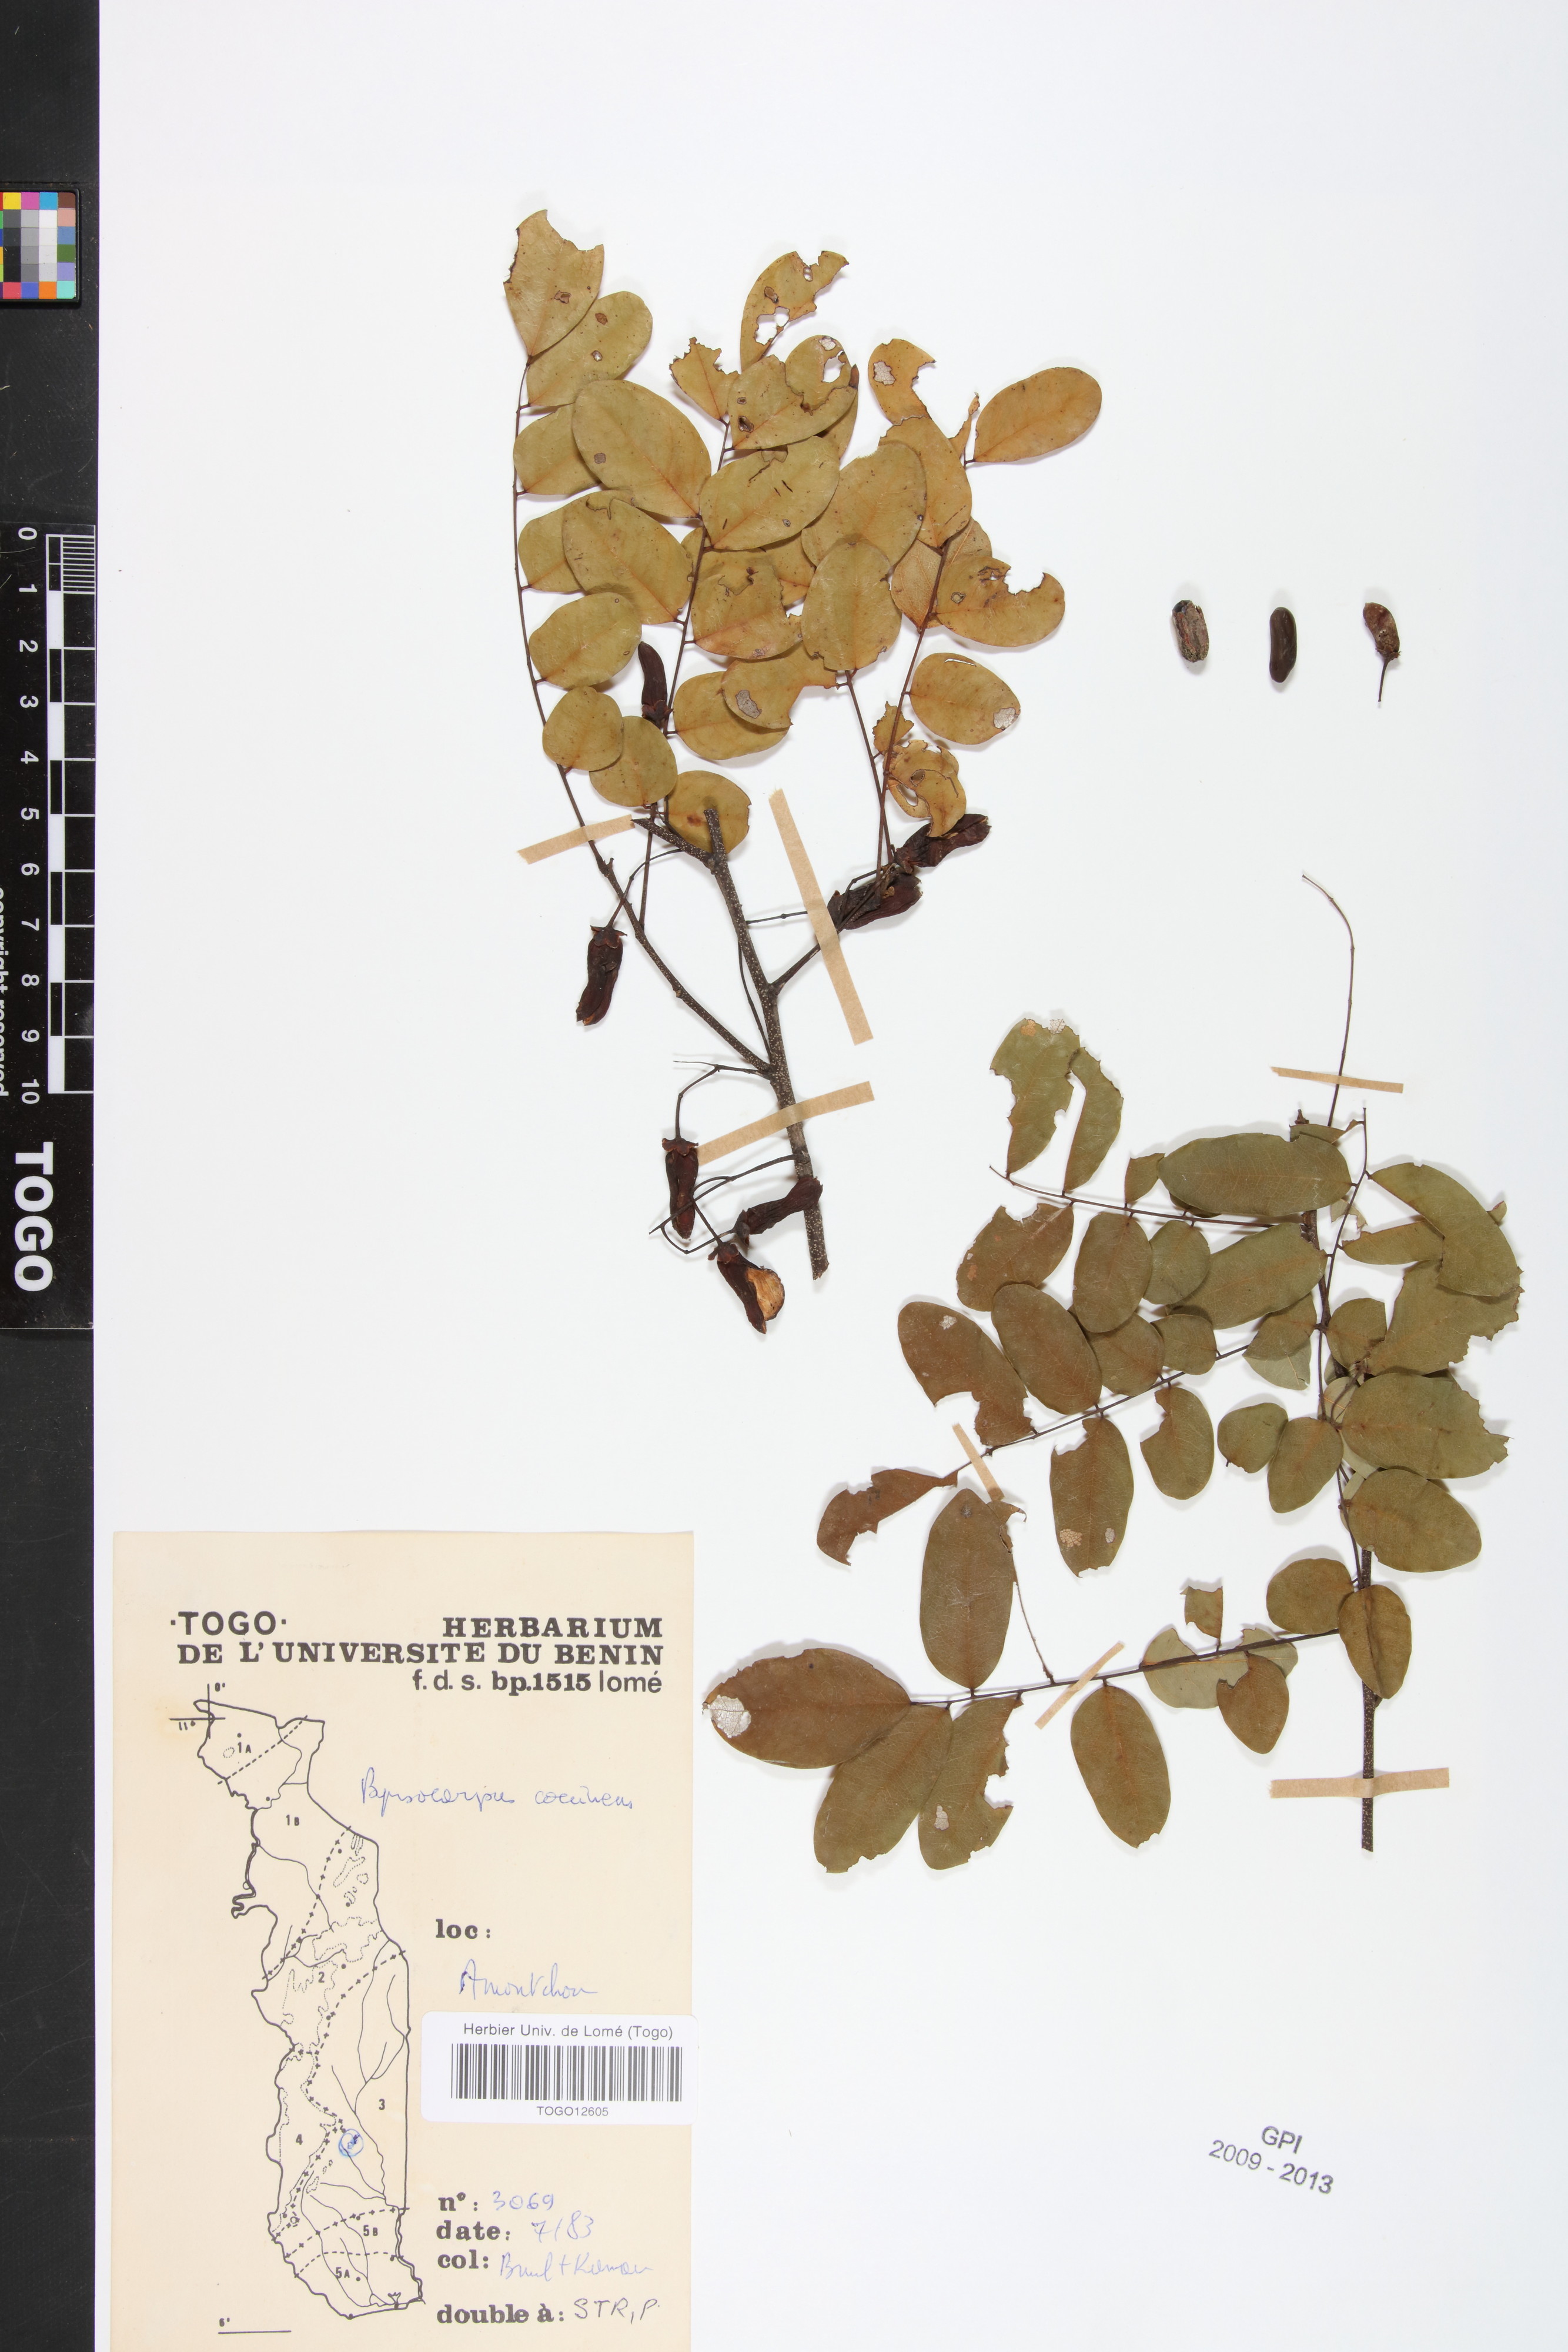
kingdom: Plantae
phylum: Tracheophyta
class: Magnoliopsida
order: Oxalidales
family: Connaraceae
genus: Rourea
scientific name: Rourea coccinea
